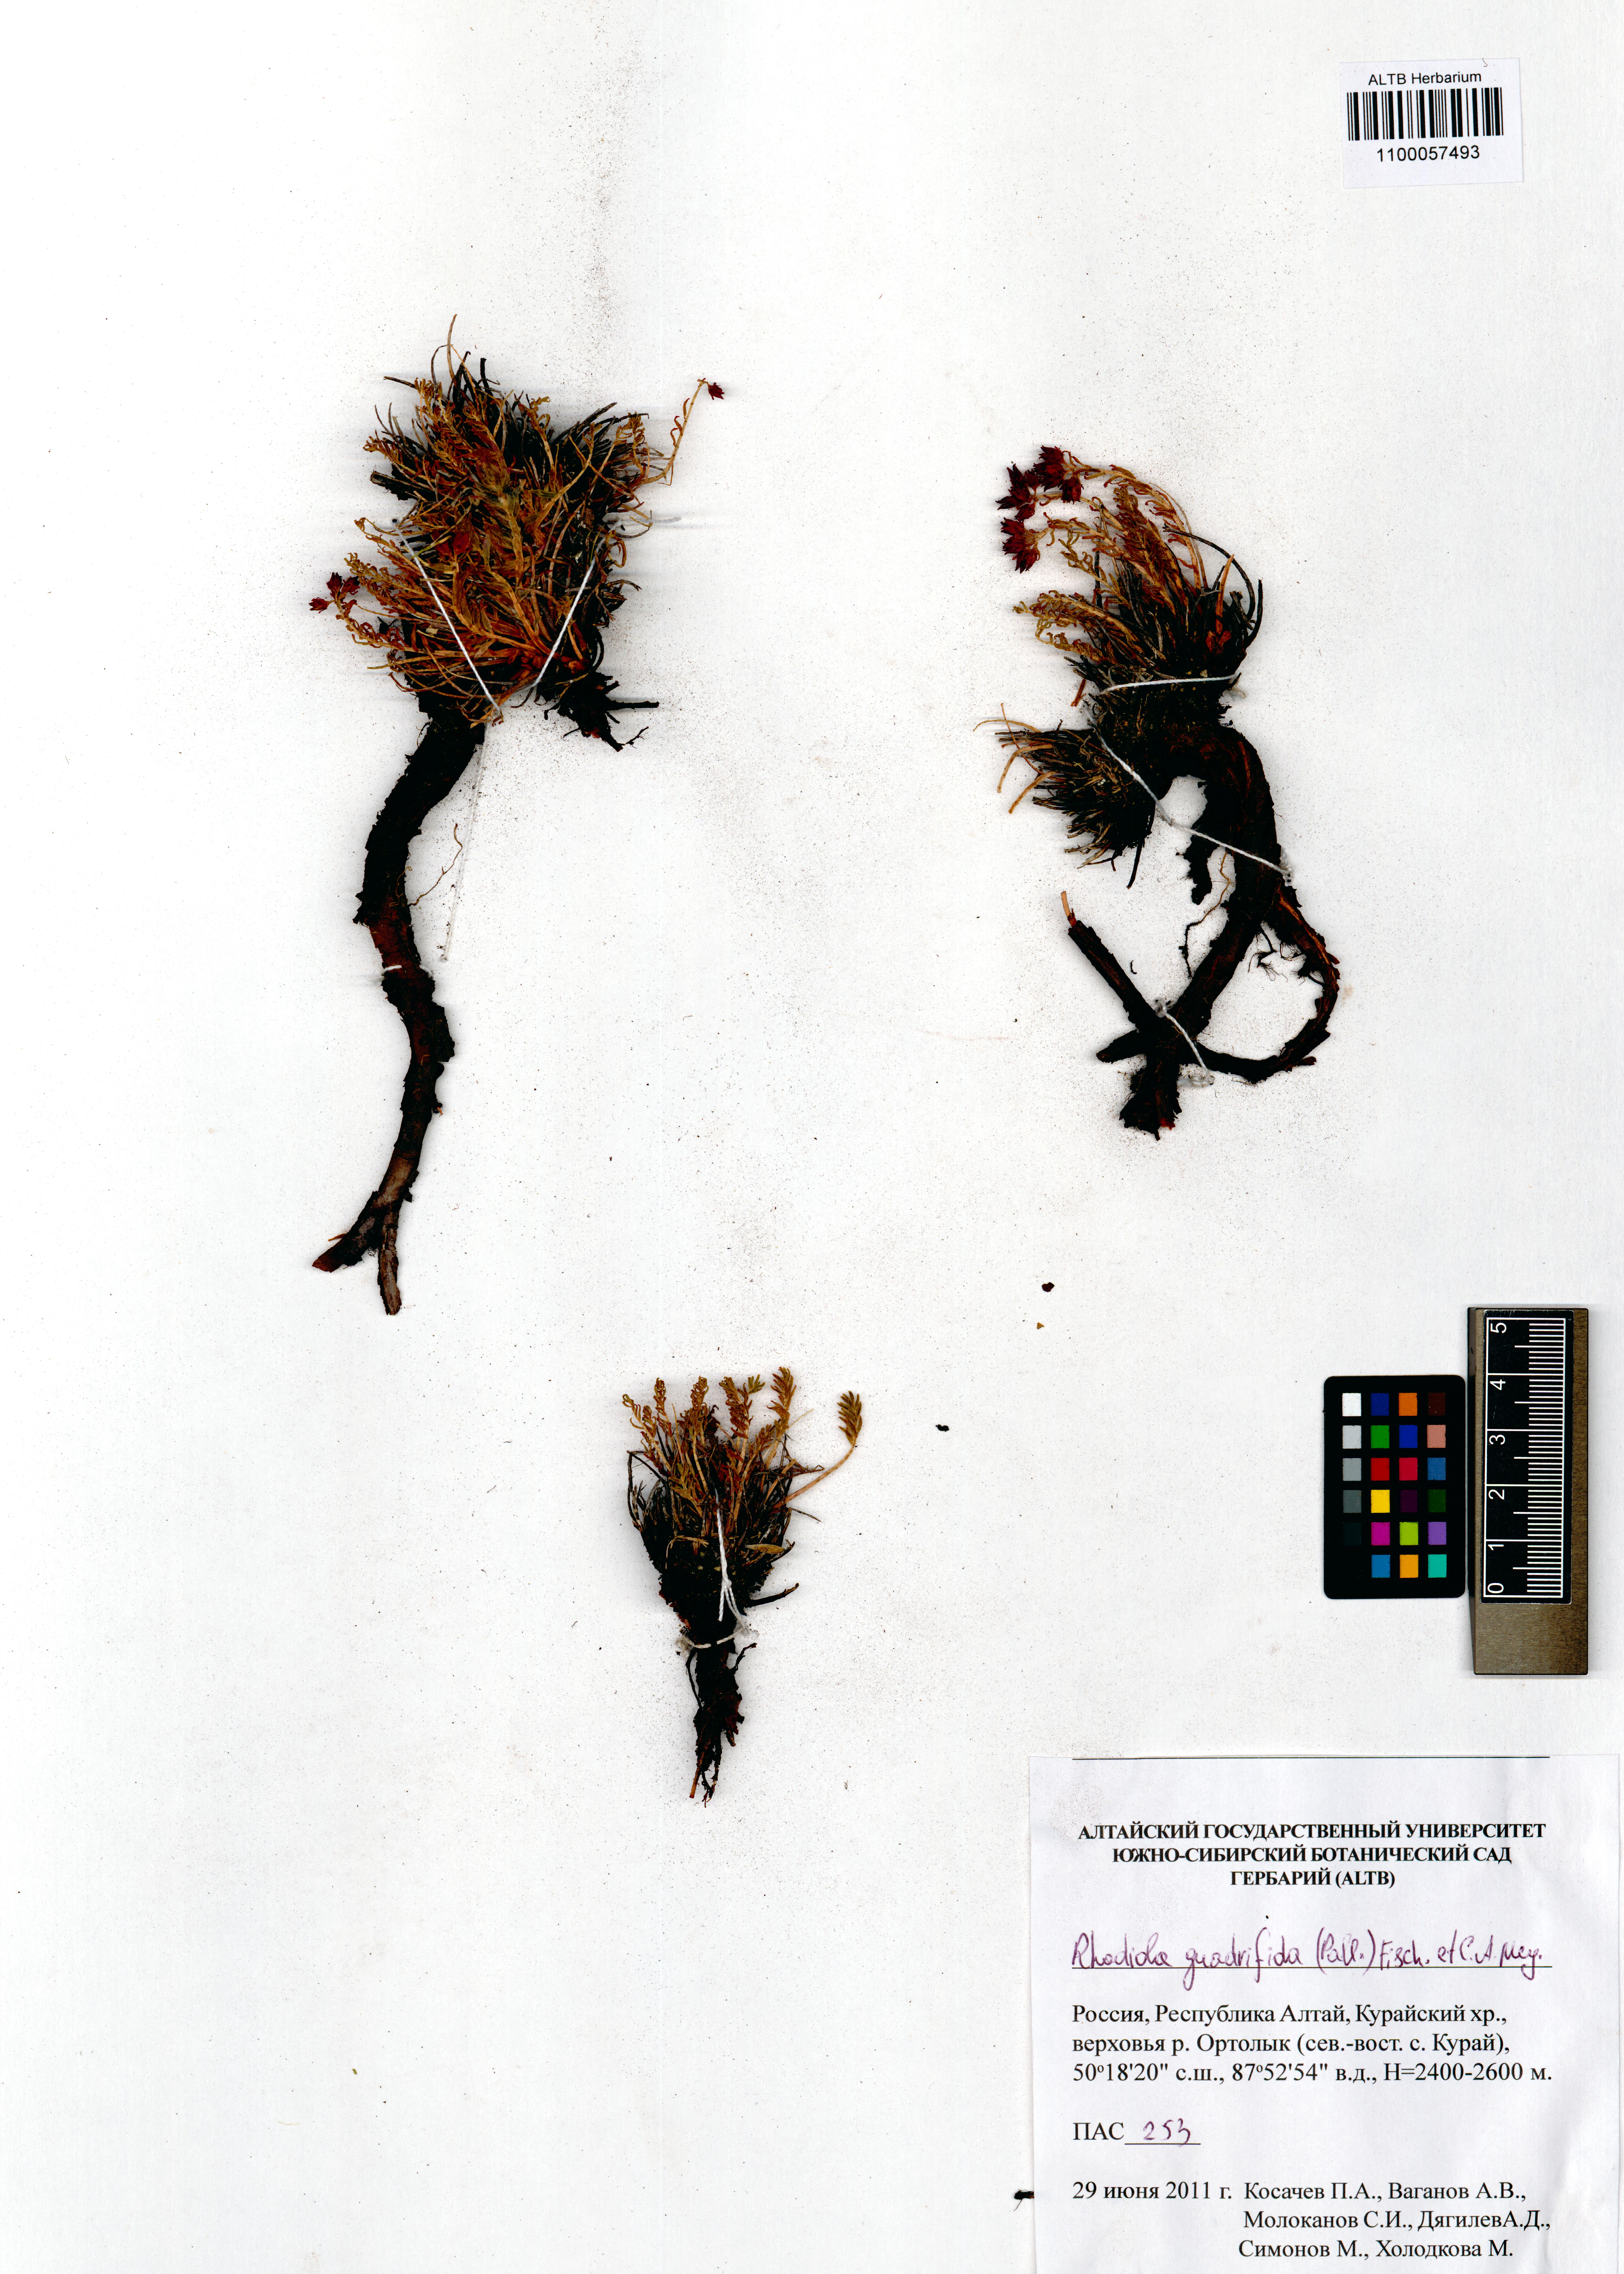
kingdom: Plantae
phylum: Tracheophyta
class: Magnoliopsida
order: Saxifragales
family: Crassulaceae
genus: Rhodiola
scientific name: Rhodiola quadrifida
